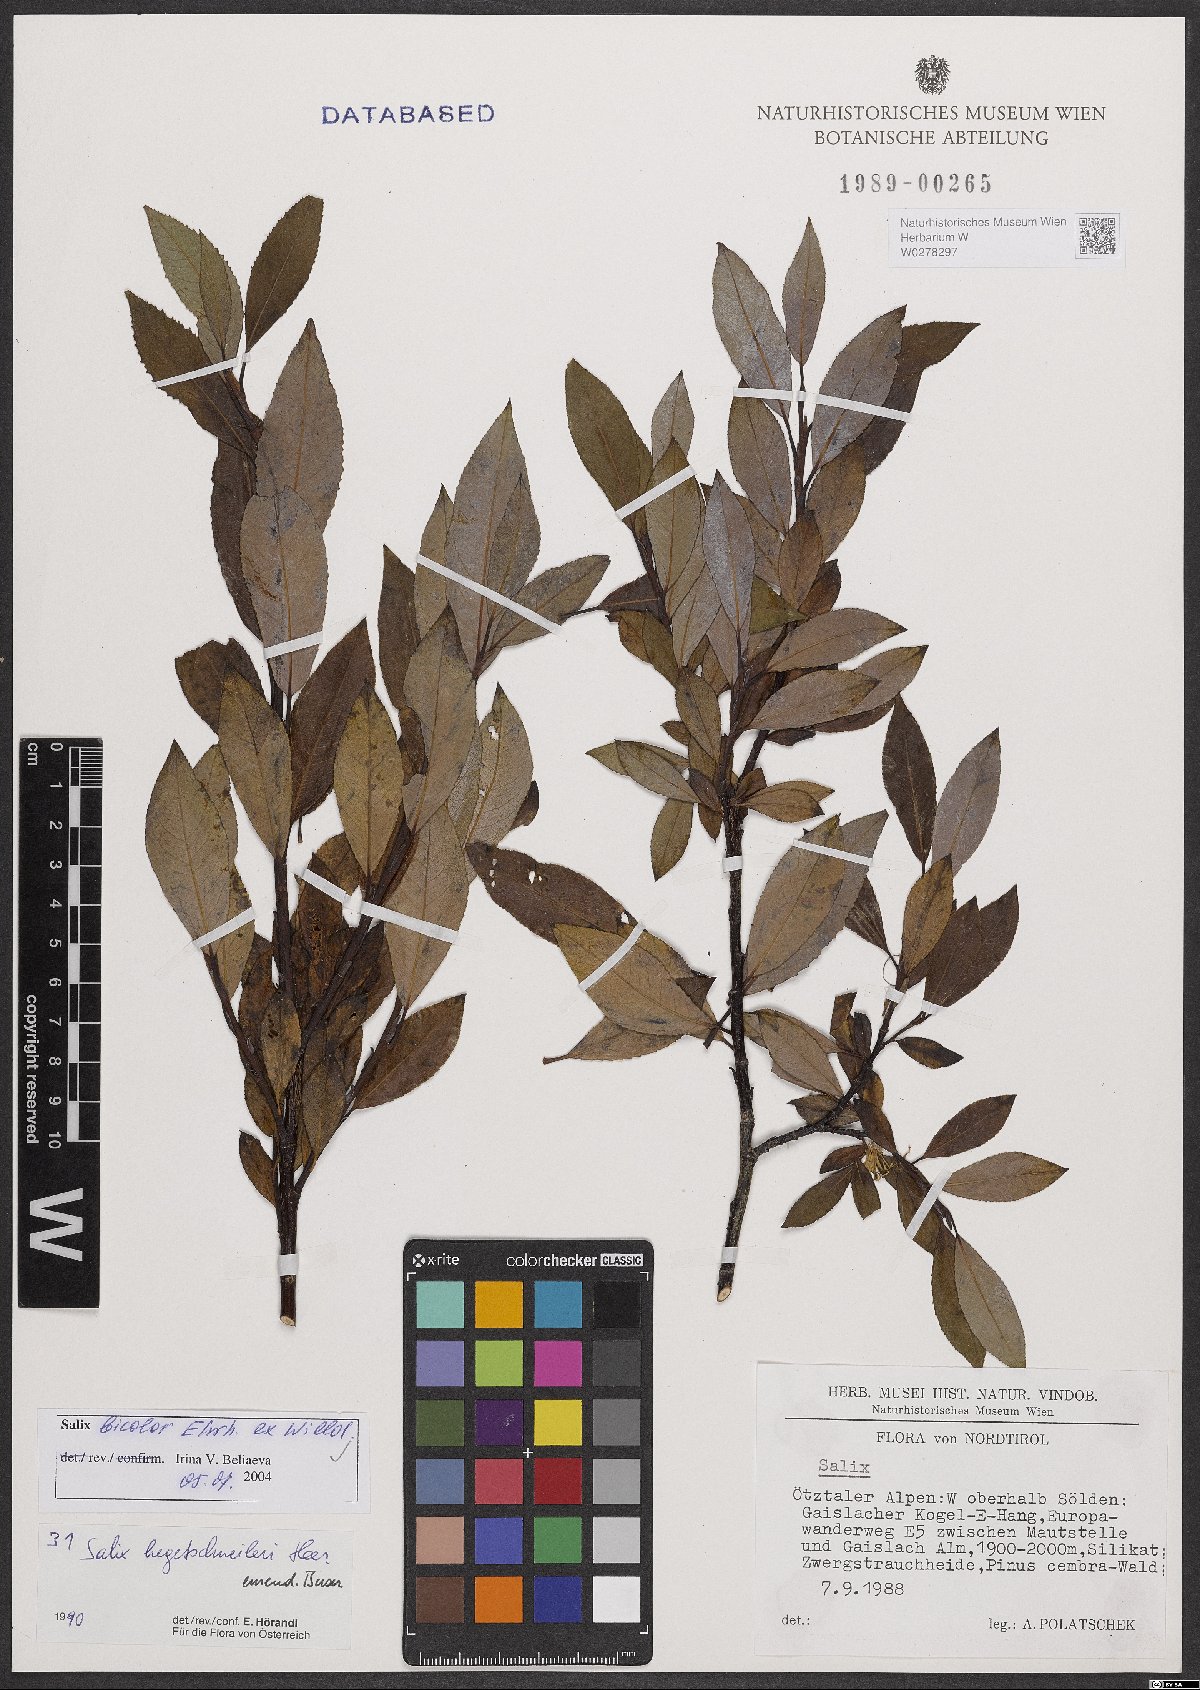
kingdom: Plantae
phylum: Tracheophyta
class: Magnoliopsida
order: Malpighiales
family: Salicaceae
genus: Salix
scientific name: Salix bicolor
